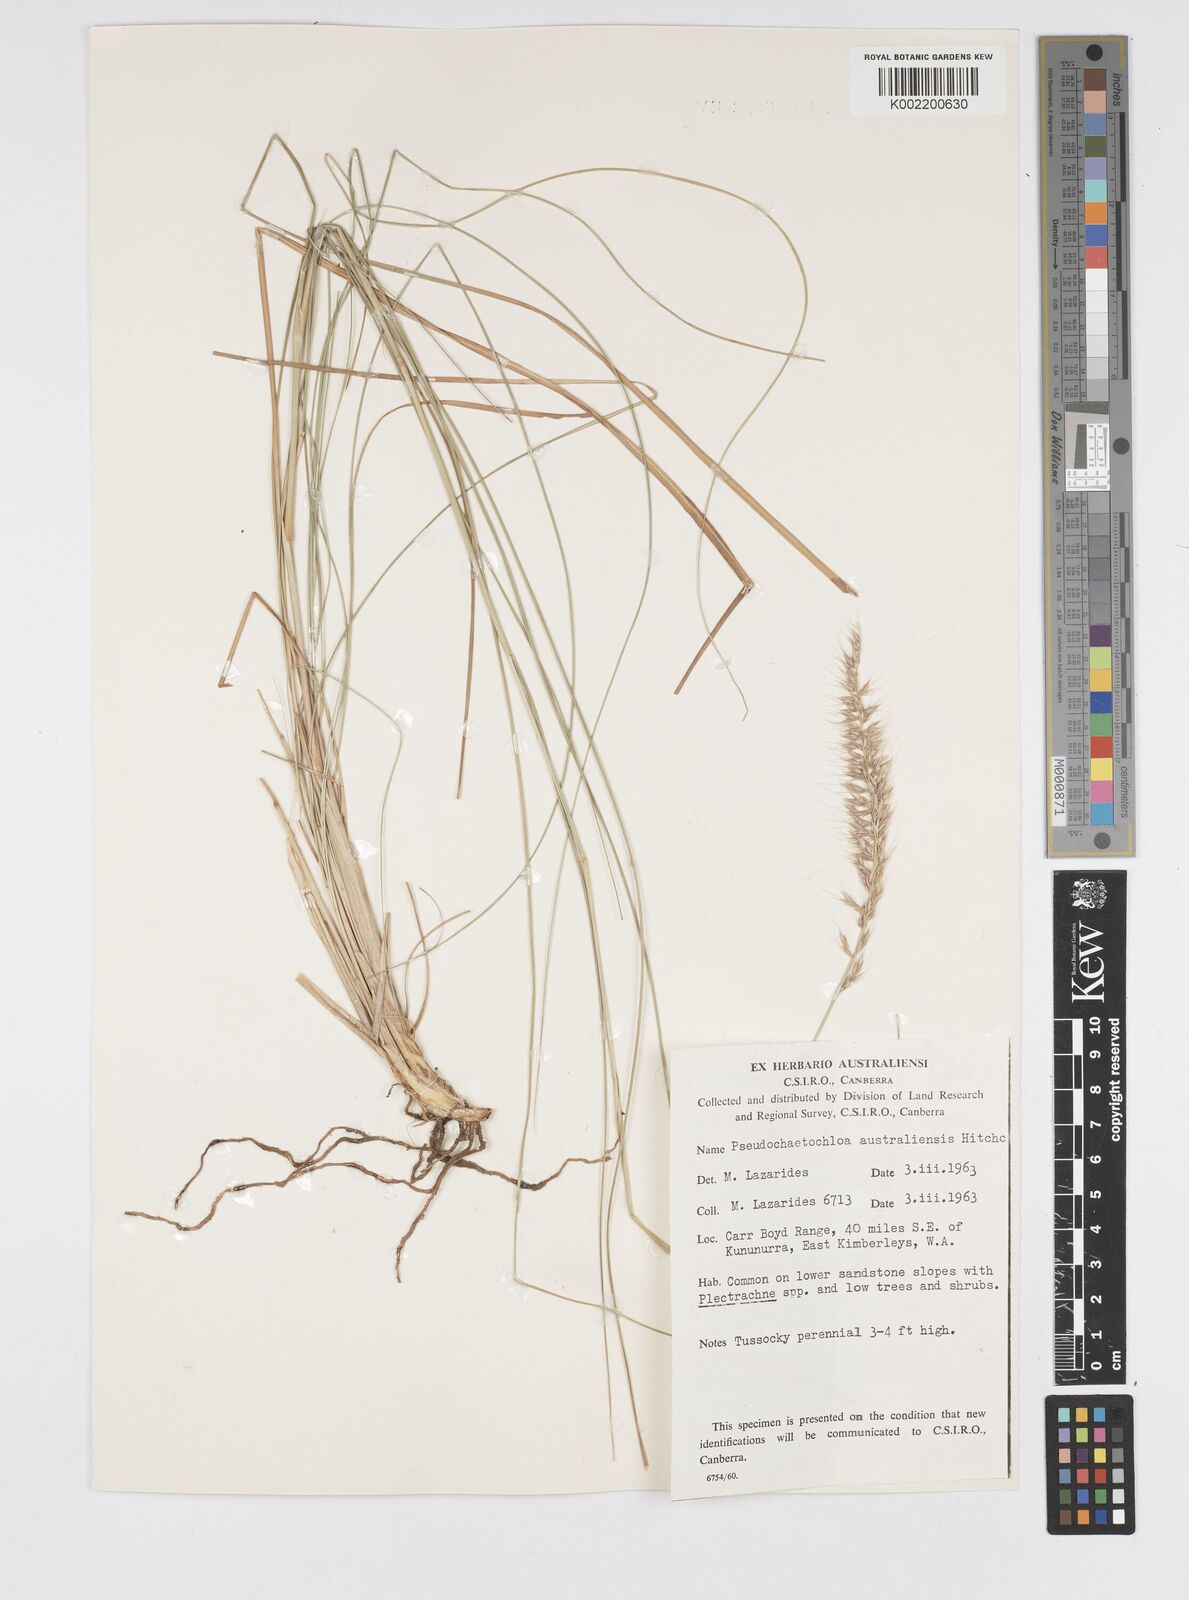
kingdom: Plantae
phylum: Tracheophyta
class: Liliopsida
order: Poales
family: Poaceae
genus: Cenchrus
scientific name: Cenchrus arnhemicus
